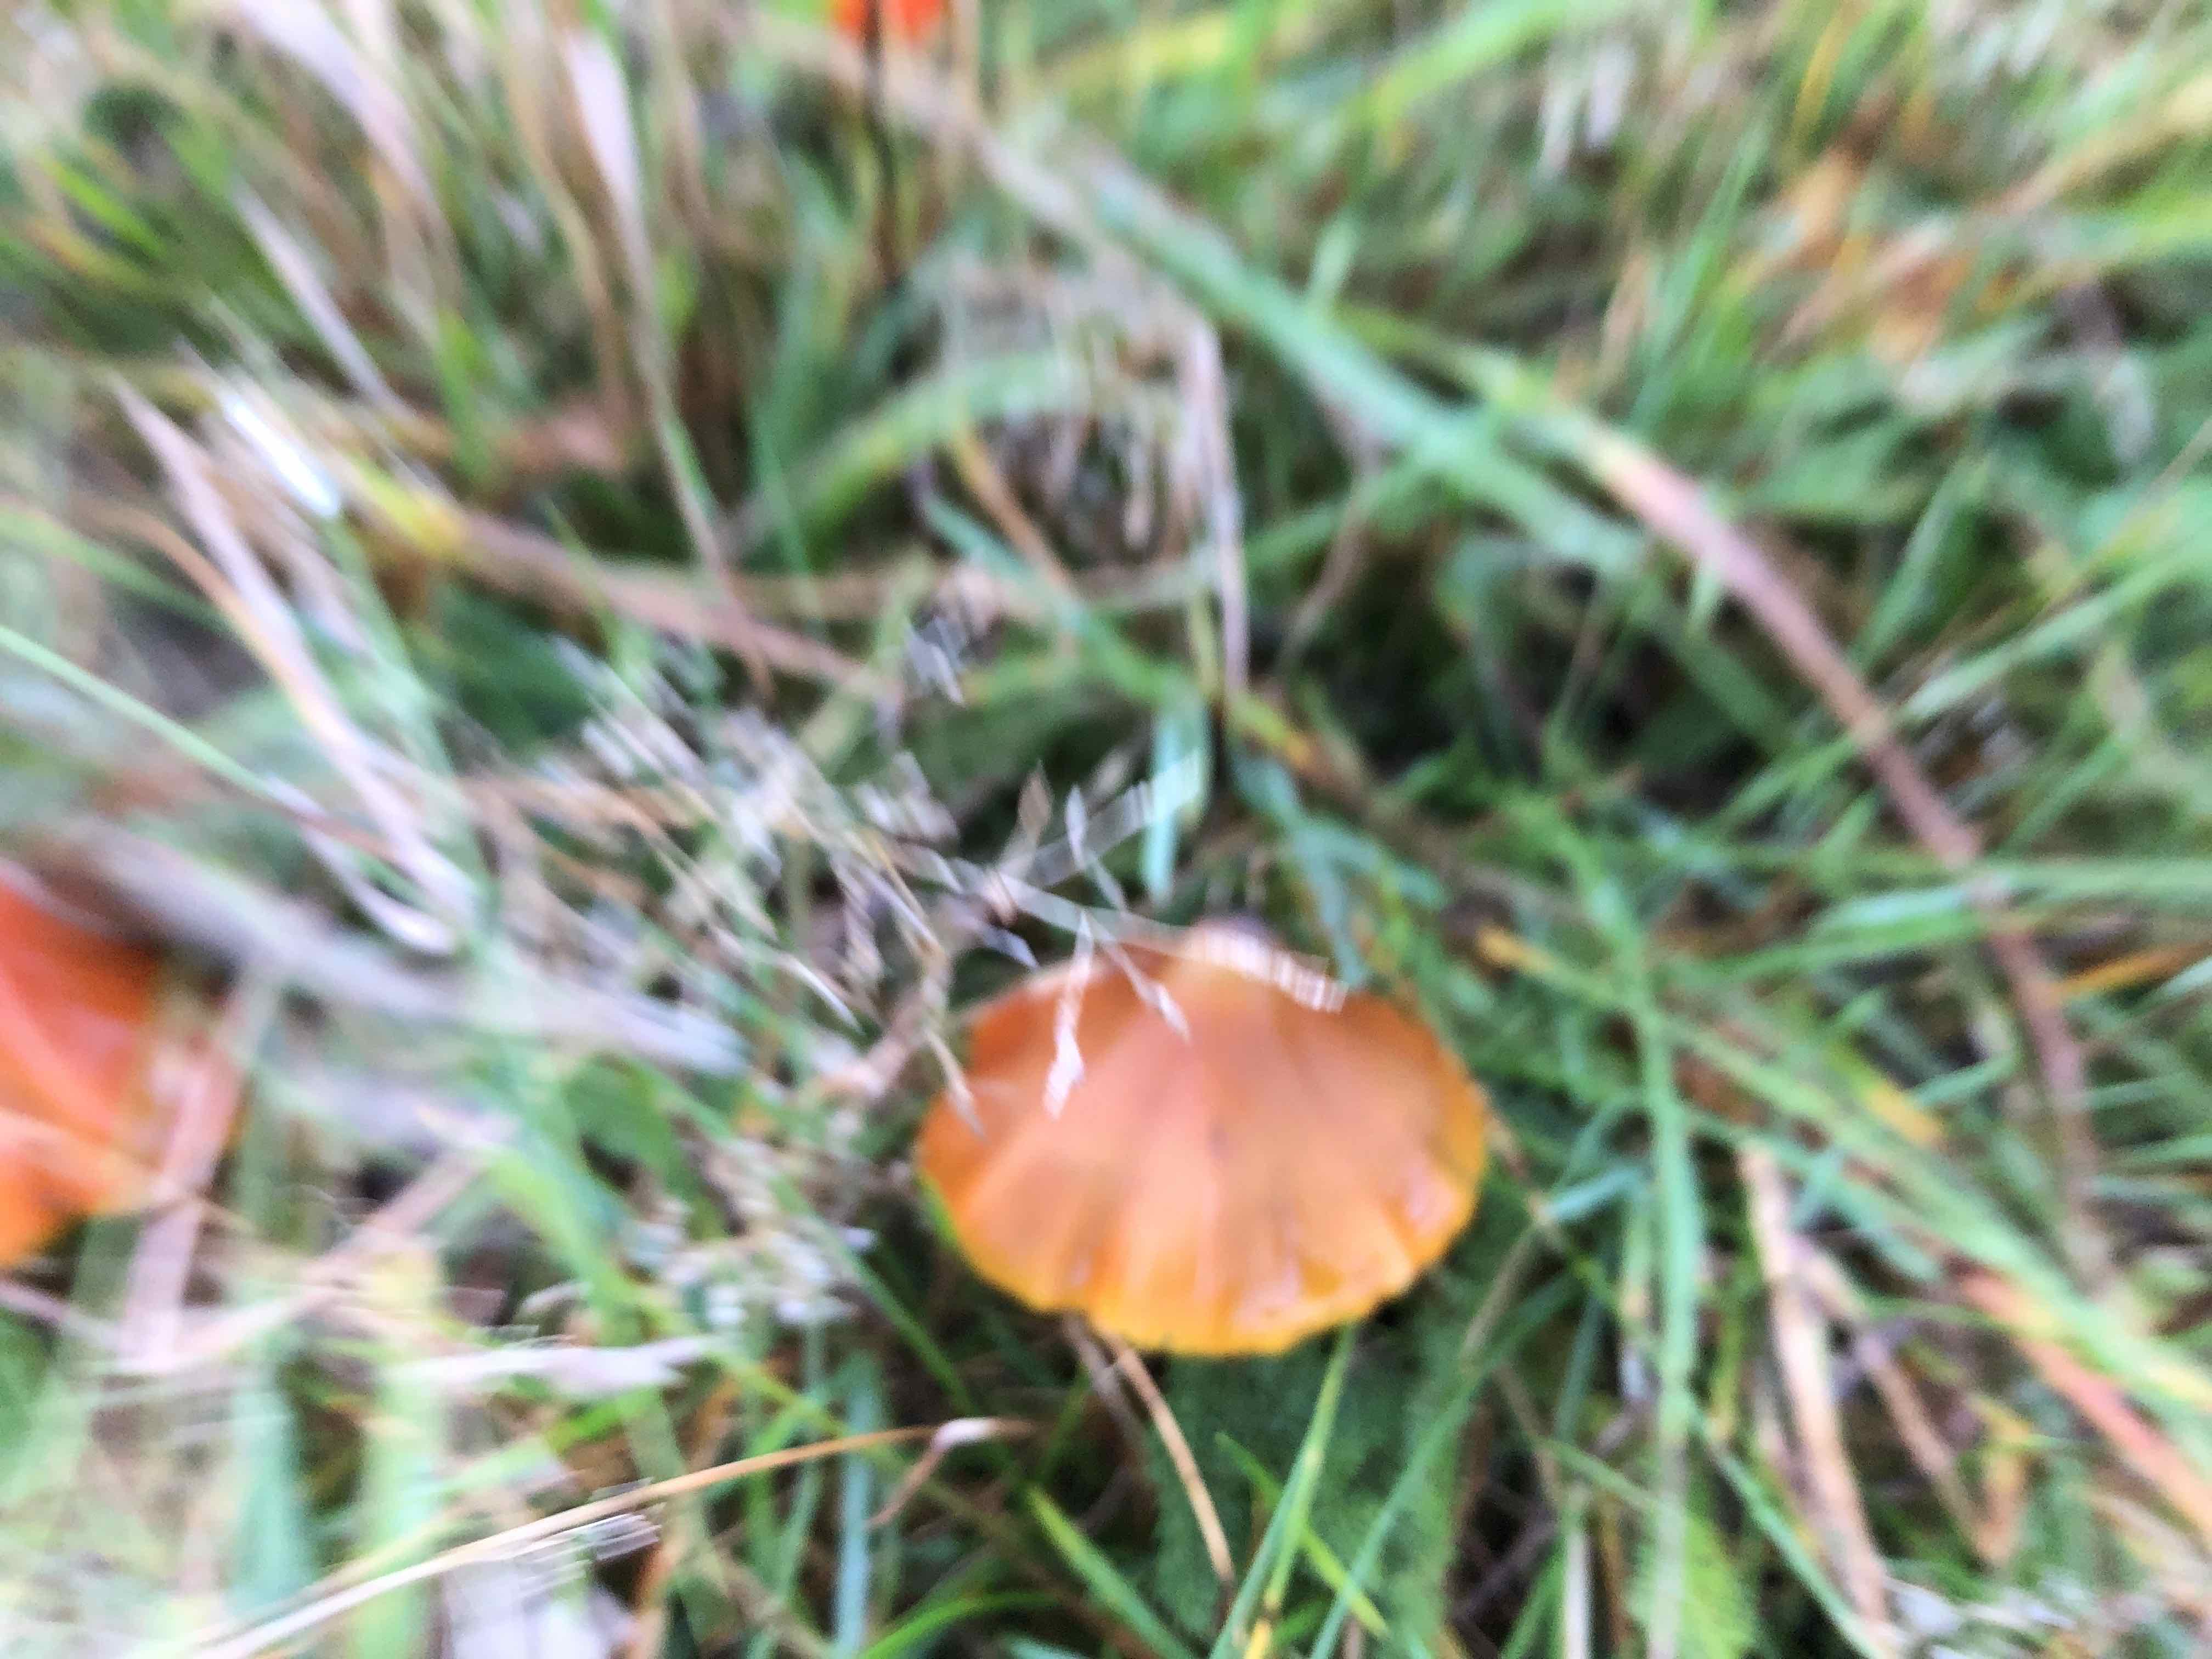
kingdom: Fungi
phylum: Basidiomycota
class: Agaricomycetes
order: Agaricales
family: Hygrophoraceae
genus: Hygrocybe
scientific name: Hygrocybe conica
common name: kegle-vokshat
